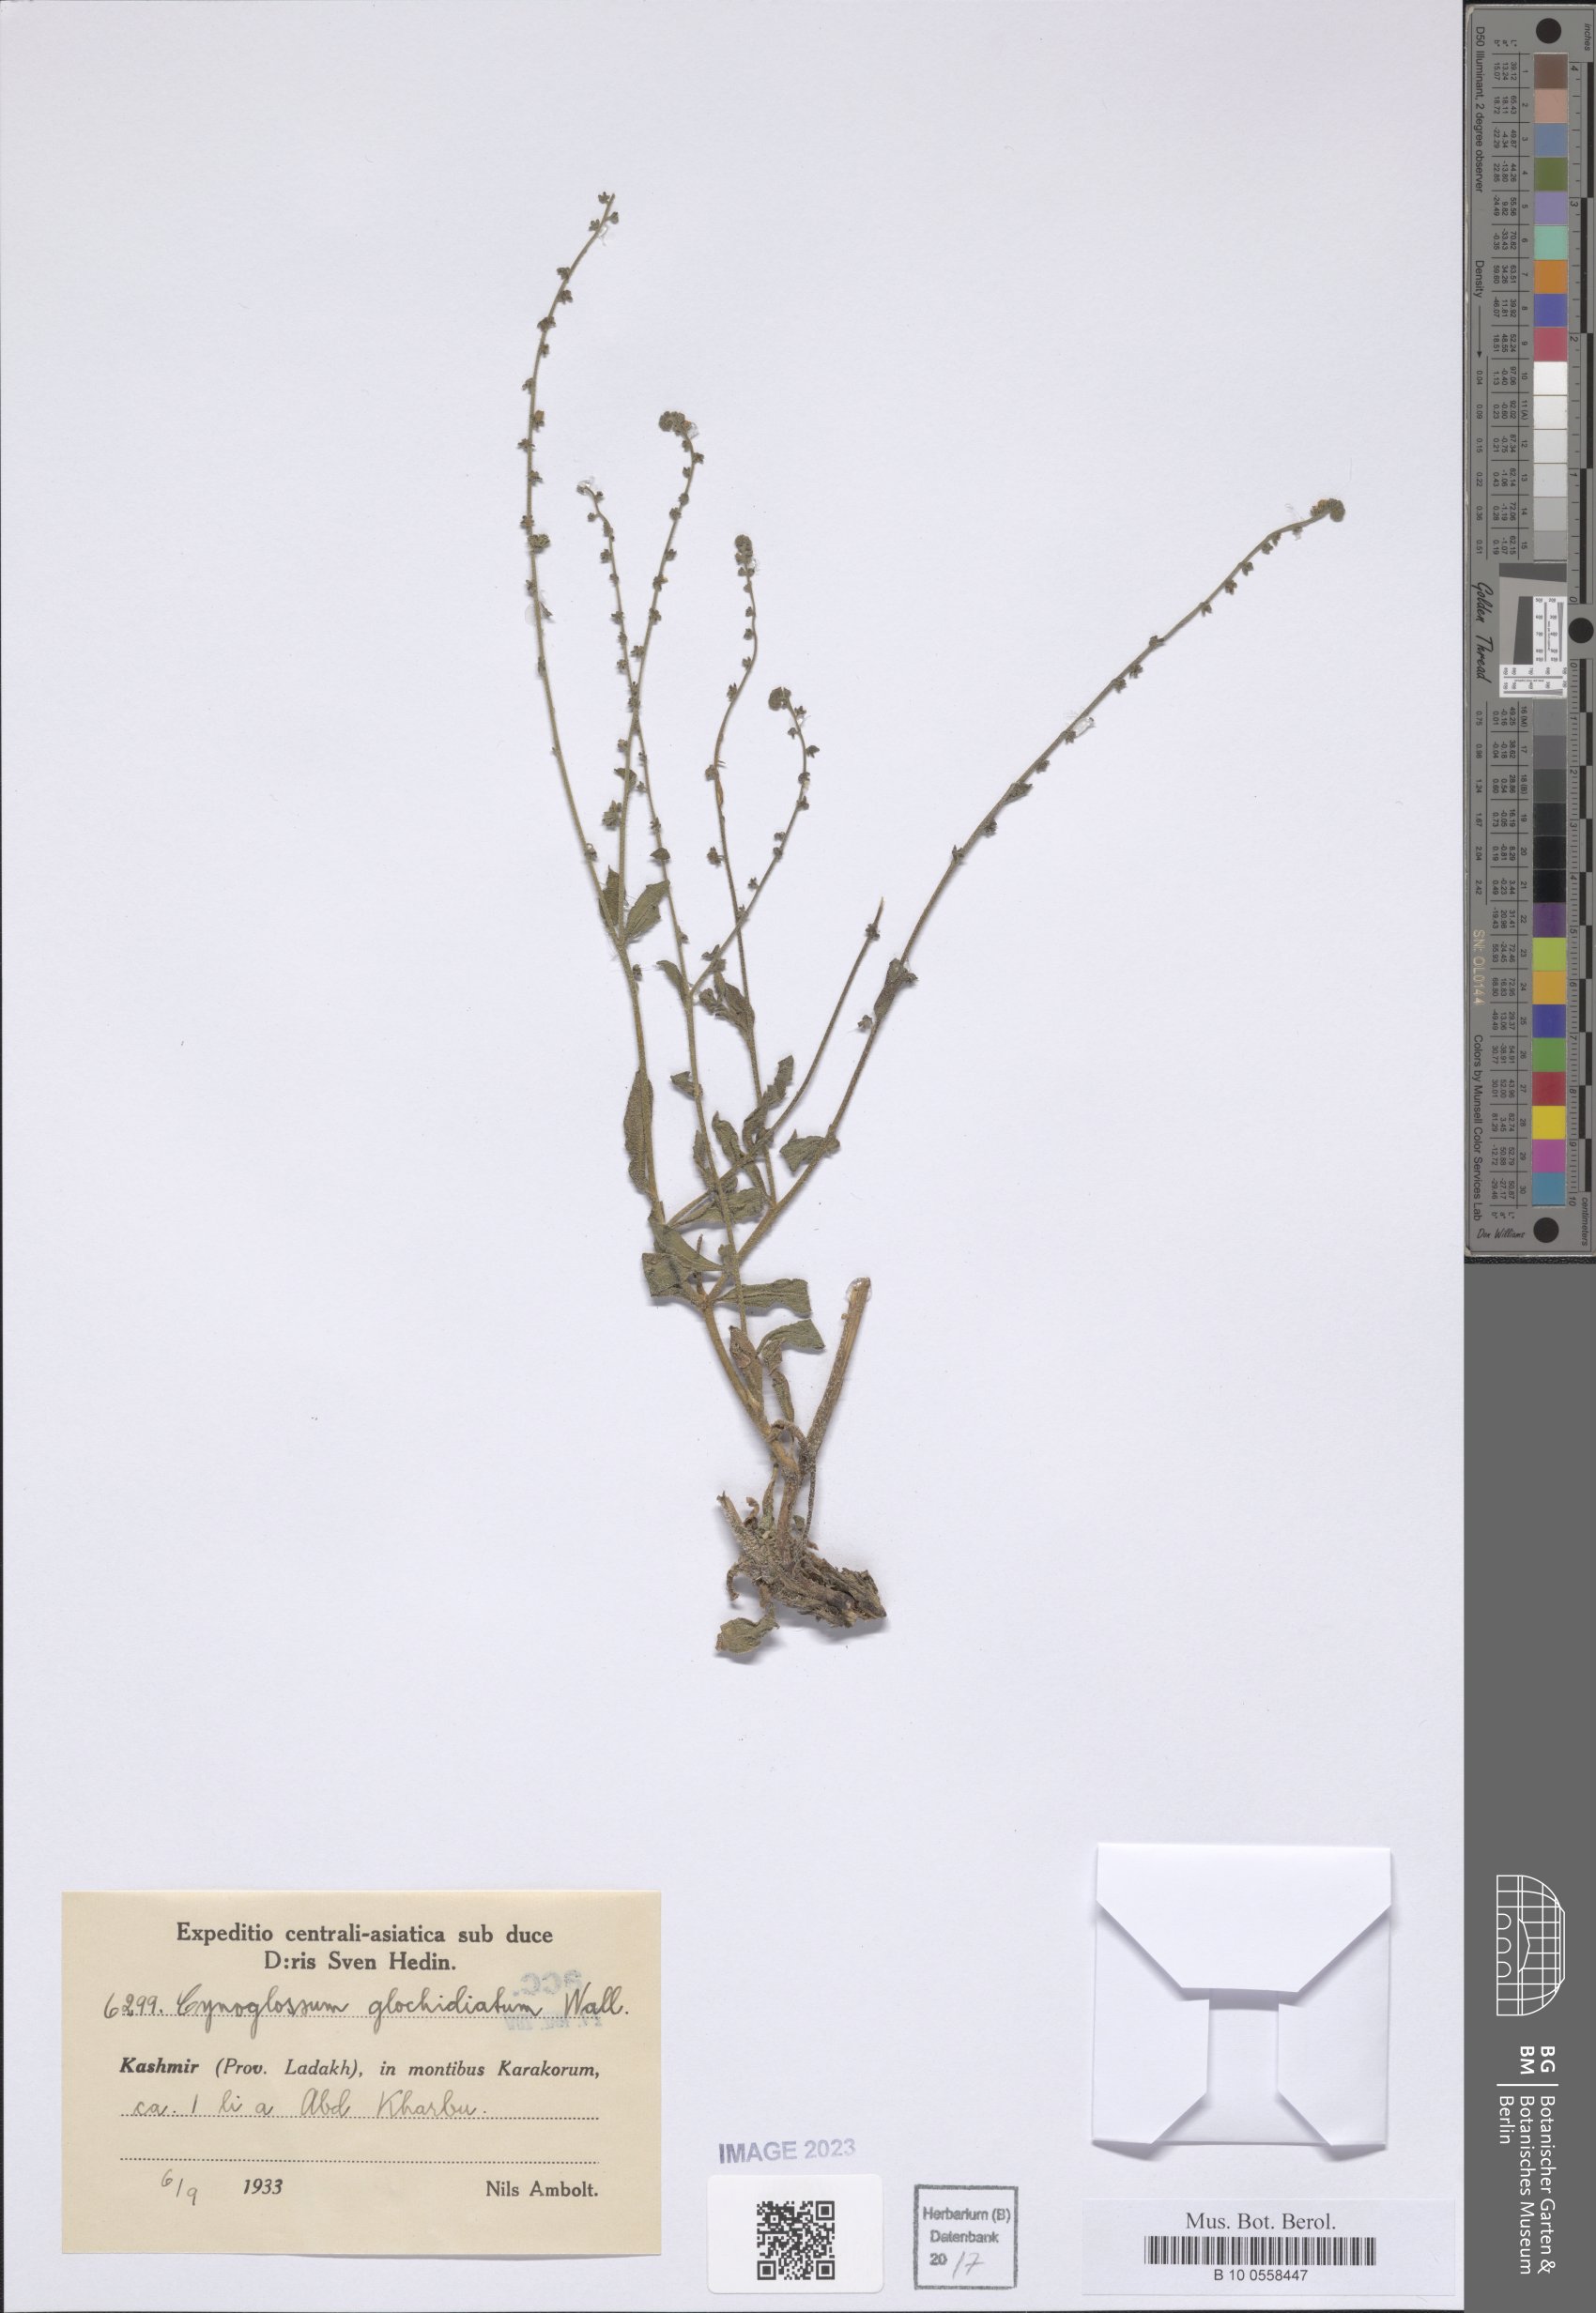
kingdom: Plantae
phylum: Tracheophyta
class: Magnoliopsida
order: Boraginales
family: Boraginaceae
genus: Paracynoglossum
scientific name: Paracynoglossum glochidiatum
